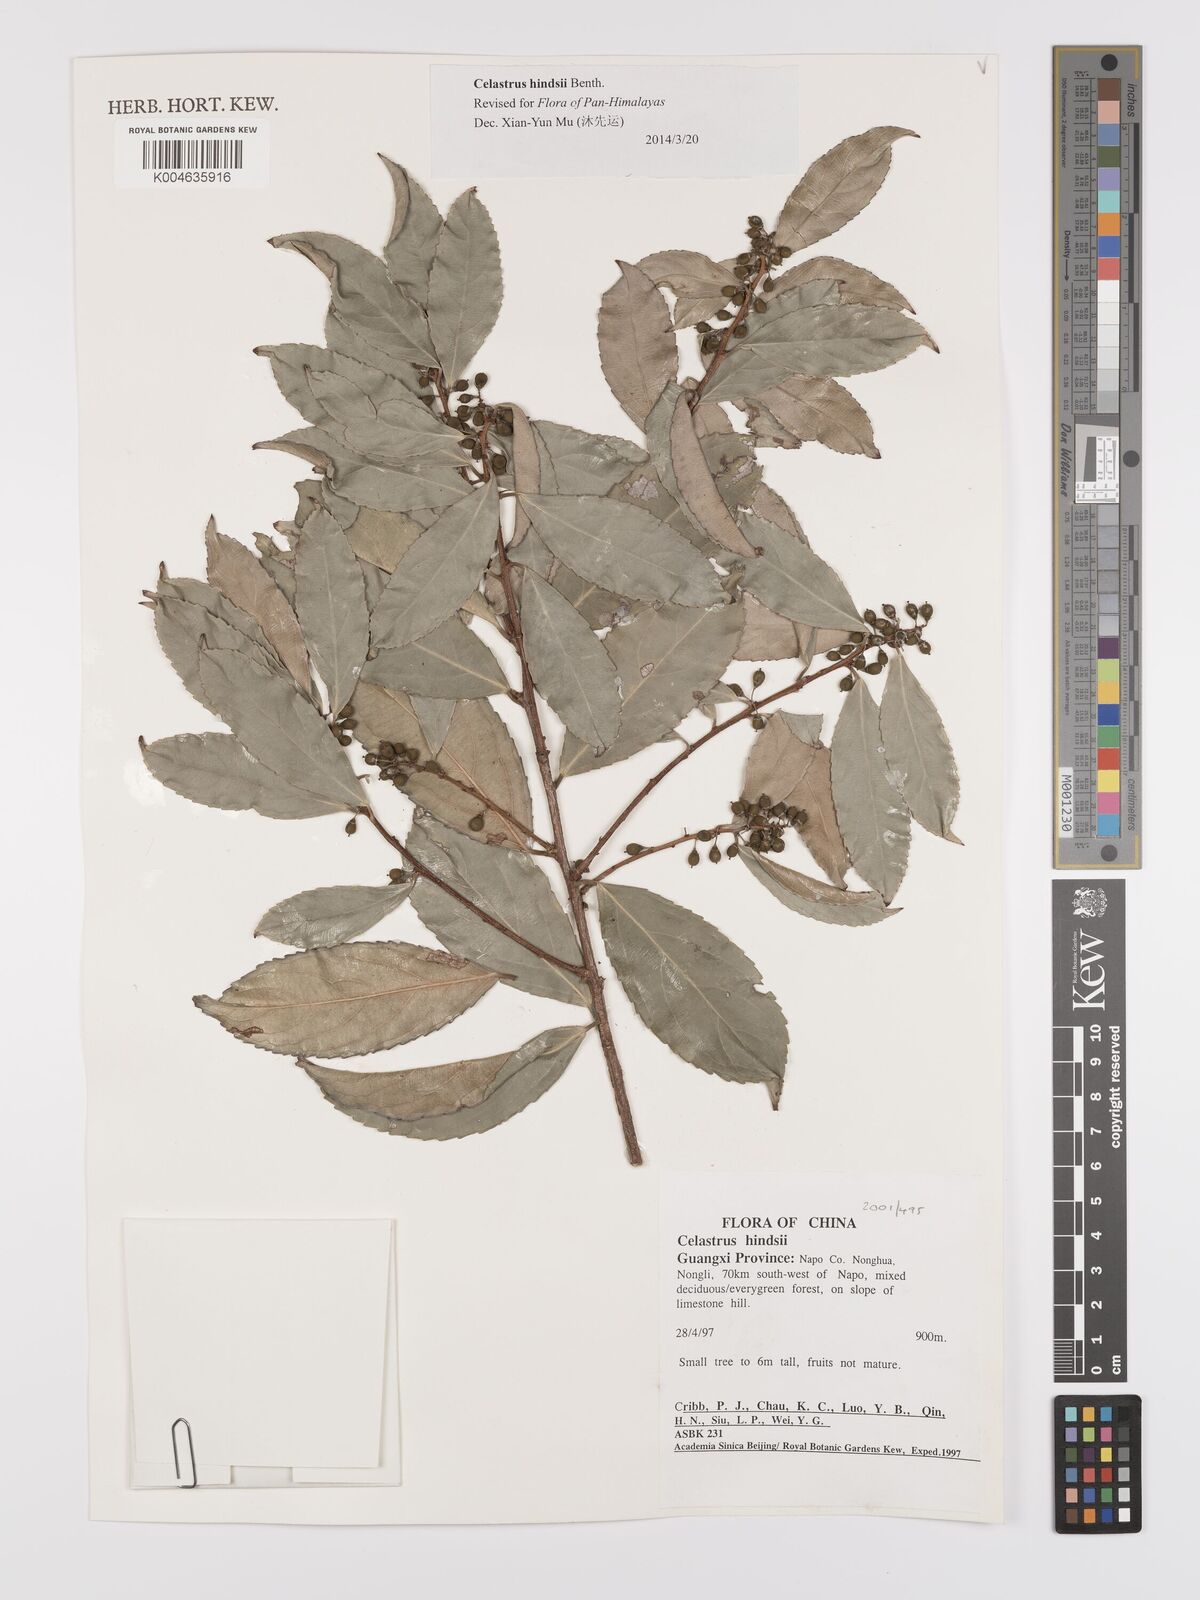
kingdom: Plantae
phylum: Tracheophyta
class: Magnoliopsida
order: Celastrales
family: Celastraceae
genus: Celastrus
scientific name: Celastrus hindsii
